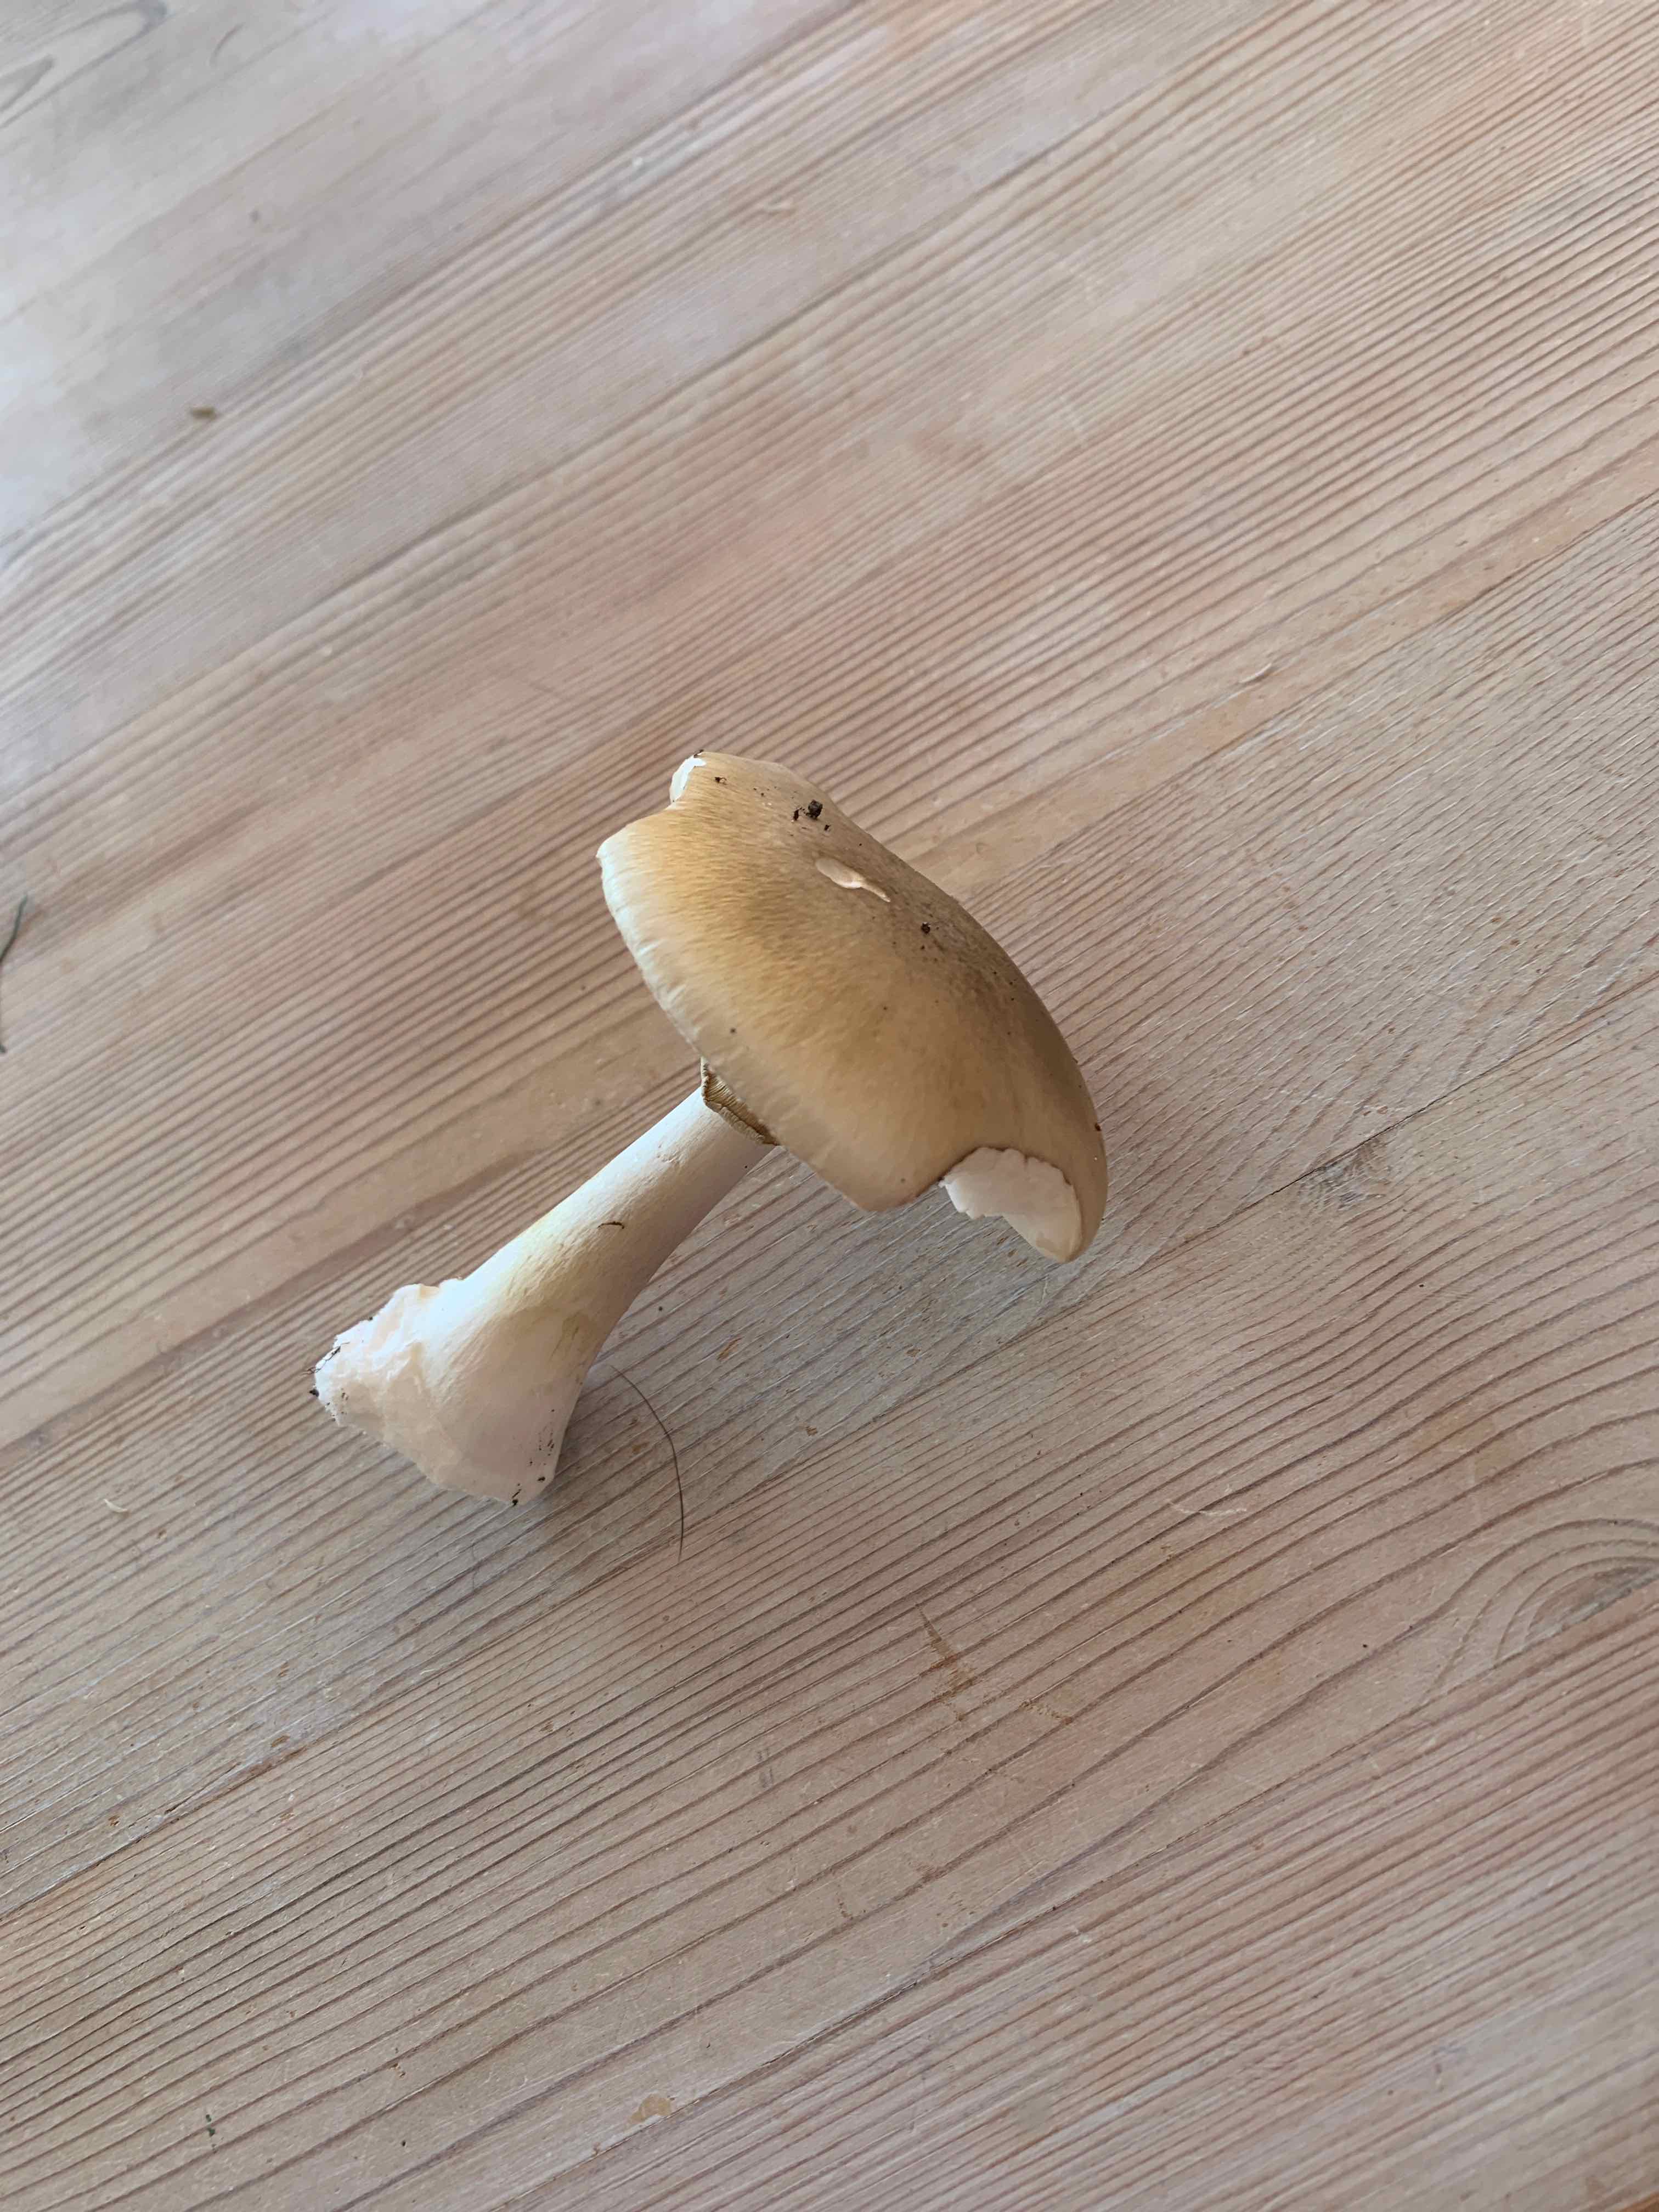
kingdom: Fungi
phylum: Basidiomycota
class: Agaricomycetes
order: Agaricales
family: Amanitaceae
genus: Amanita
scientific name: Amanita phalloides
